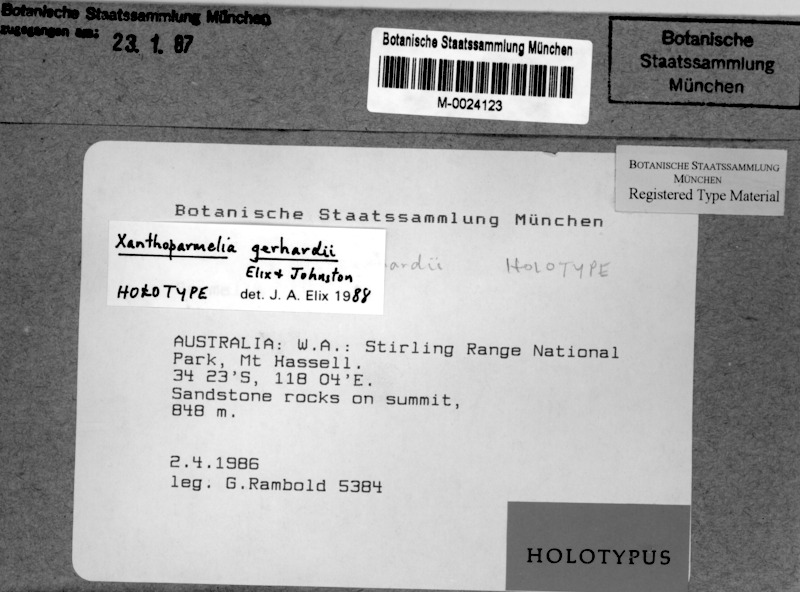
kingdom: Fungi
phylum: Ascomycota
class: Lecanoromycetes
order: Lecanorales
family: Parmeliaceae
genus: Xanthoparmelia
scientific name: Xanthoparmelia gerhardii
